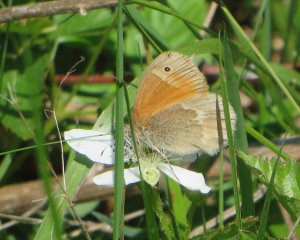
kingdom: Animalia
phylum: Arthropoda
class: Insecta
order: Lepidoptera
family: Nymphalidae
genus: Coenonympha
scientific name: Coenonympha tullia
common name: Large Heath
